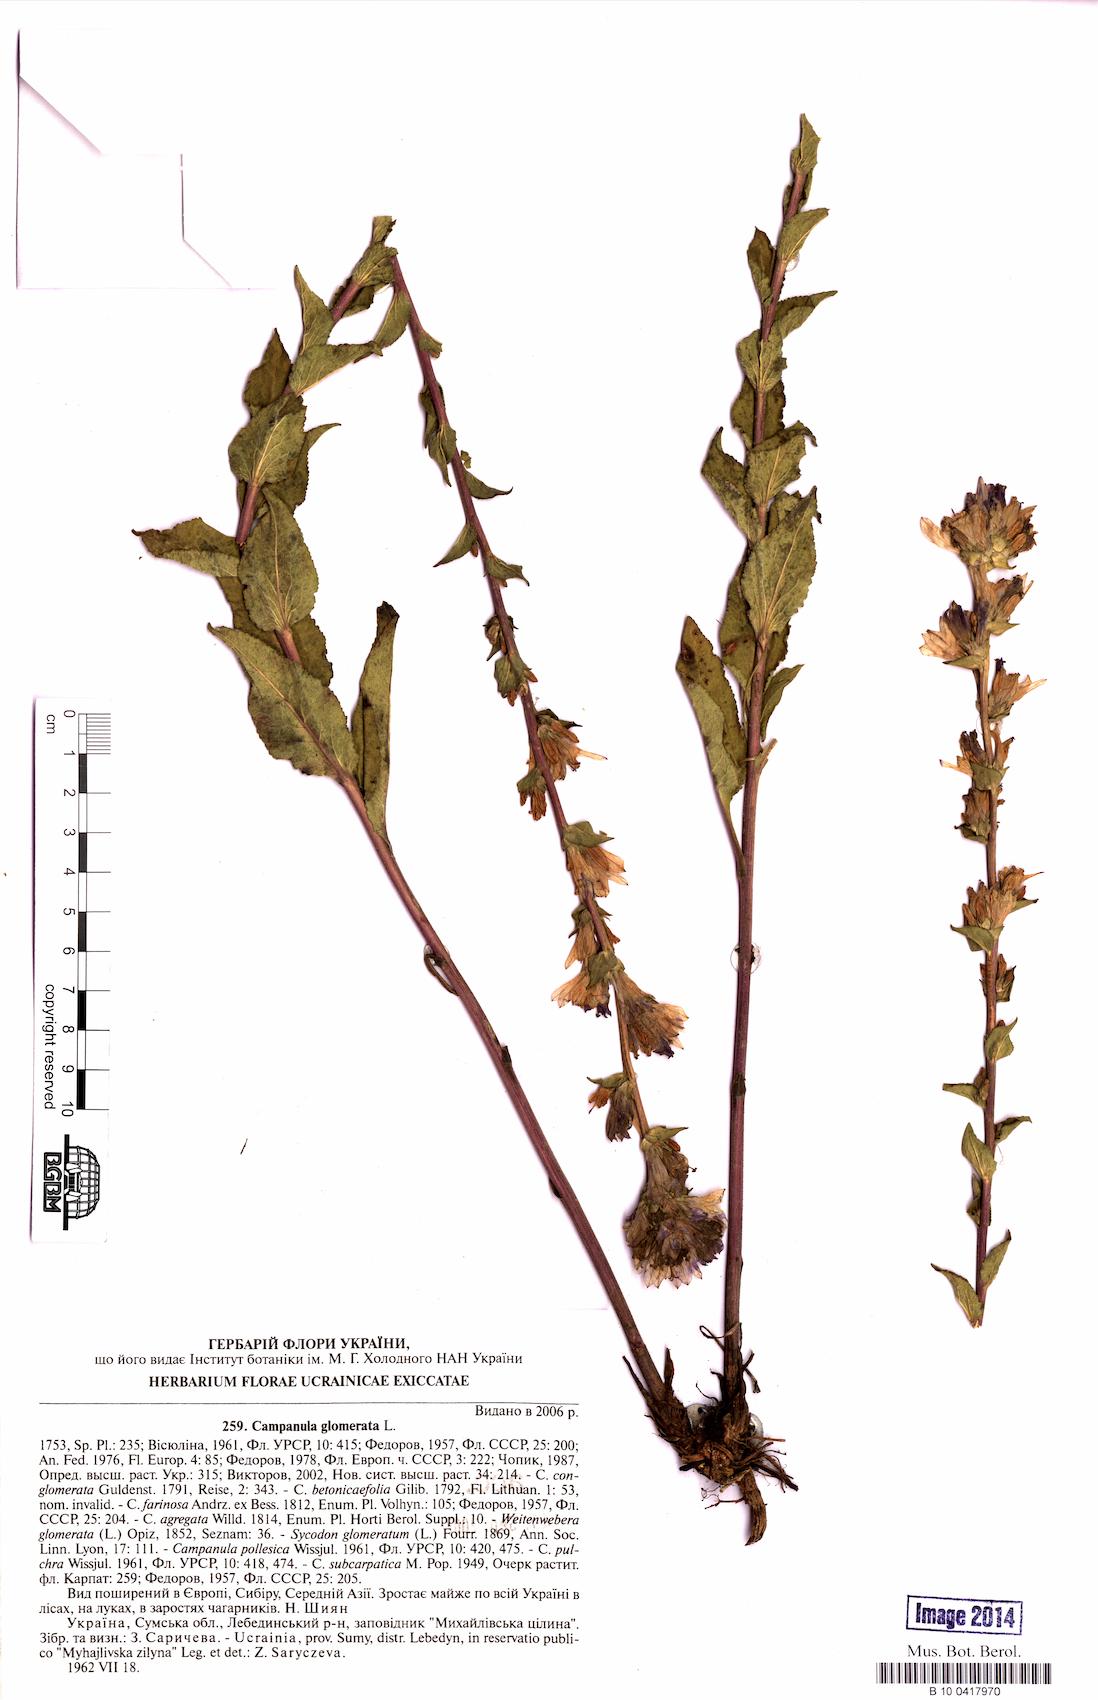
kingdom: Plantae
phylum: Tracheophyta
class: Magnoliopsida
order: Asterales
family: Campanulaceae
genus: Campanula
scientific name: Campanula glomerata
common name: Clustered bellflower
